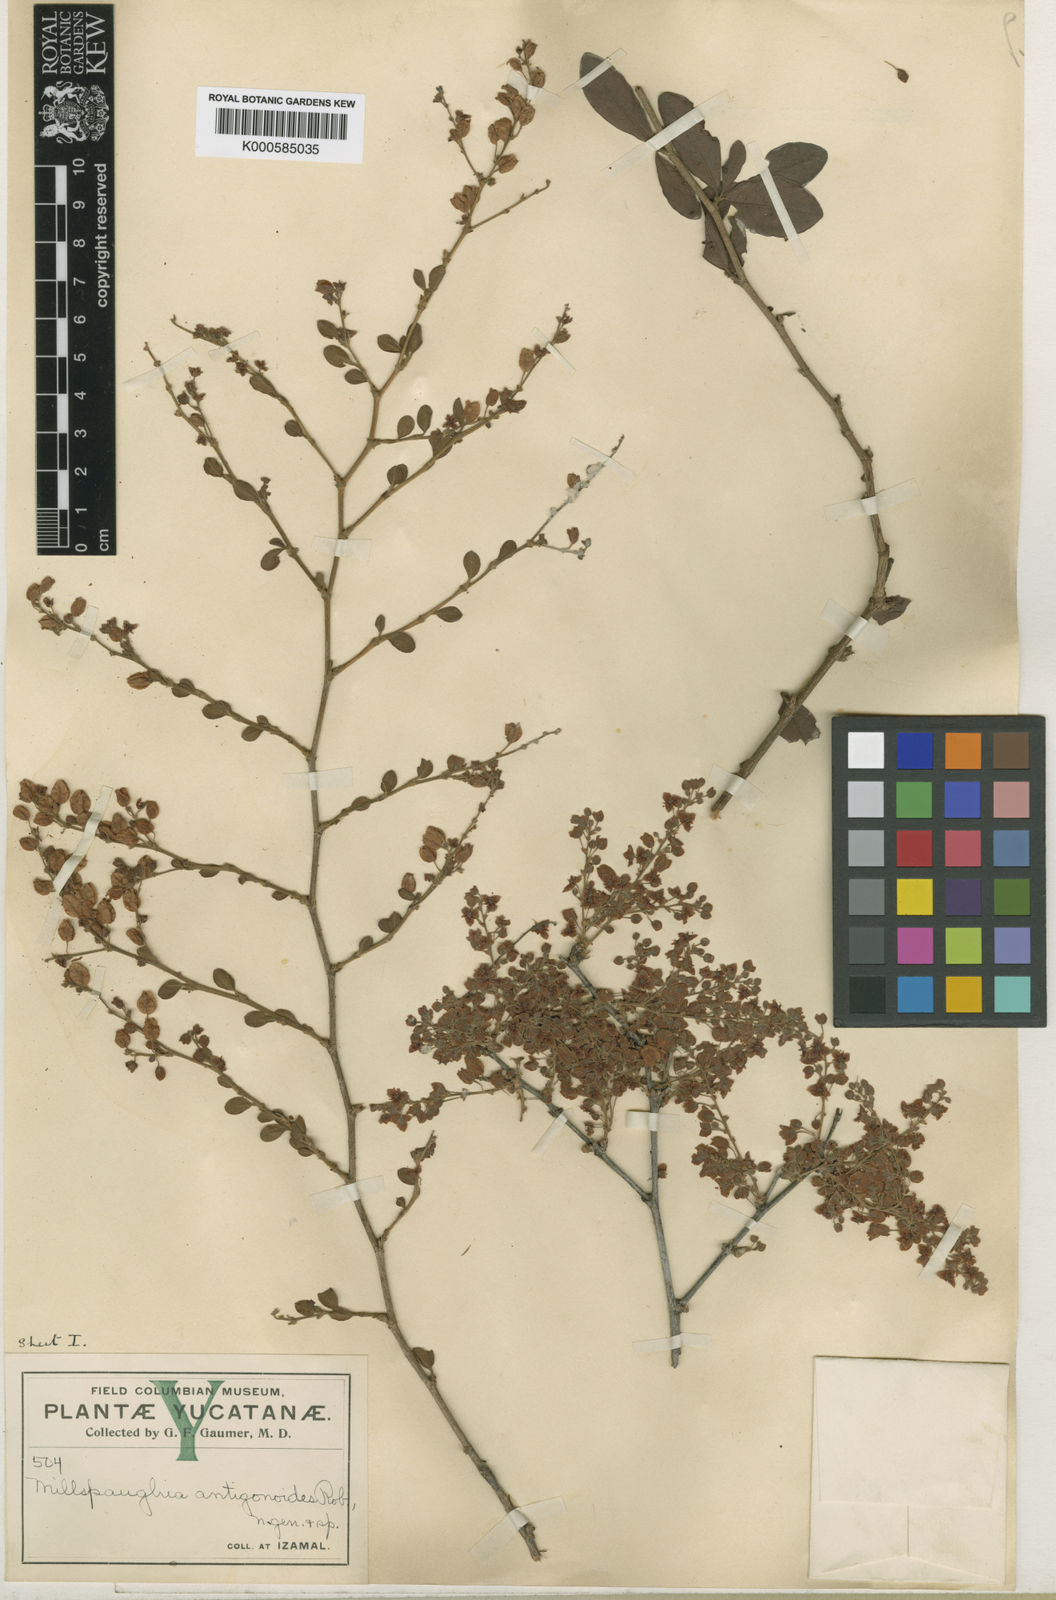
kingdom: Plantae
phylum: Tracheophyta
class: Magnoliopsida
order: Caryophyllales
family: Polygonaceae
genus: Gymnopodium
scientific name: Gymnopodium floribundum
